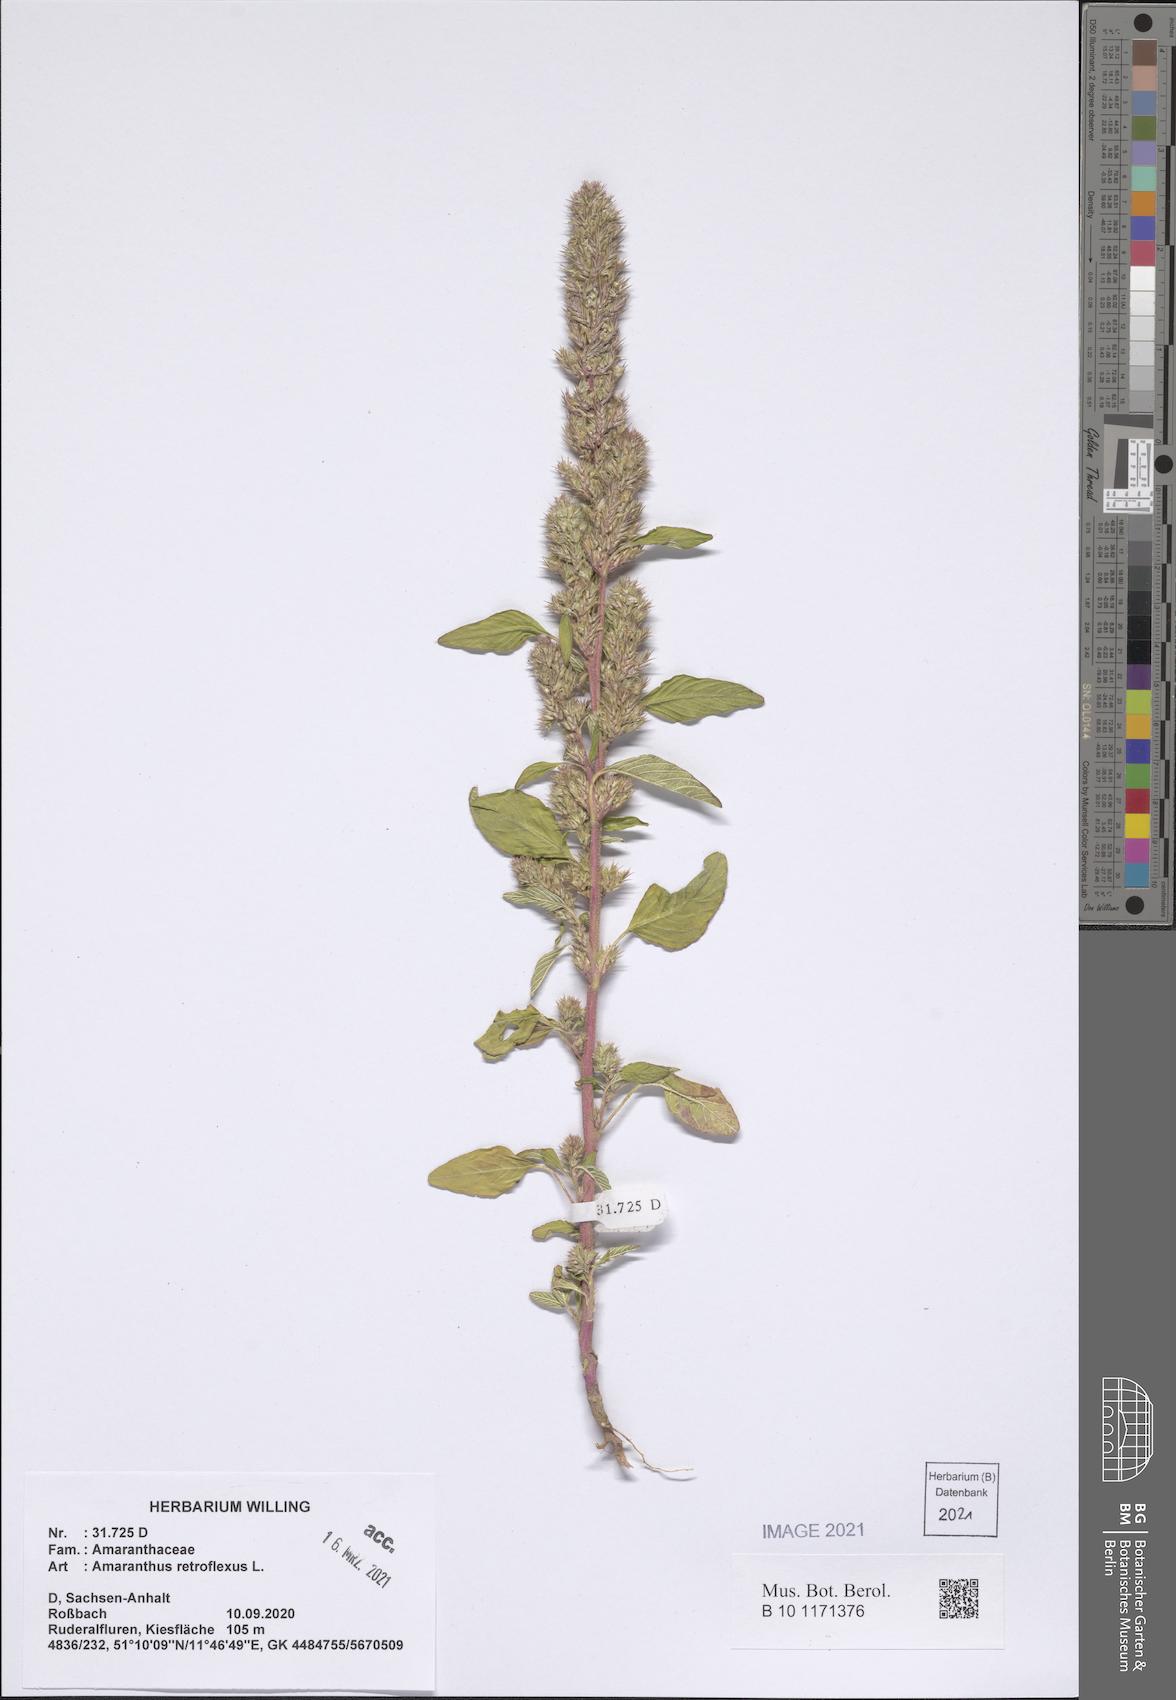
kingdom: Plantae
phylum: Tracheophyta
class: Magnoliopsida
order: Caryophyllales
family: Amaranthaceae
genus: Amaranthus
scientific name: Amaranthus retroflexus
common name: Redroot amaranth
